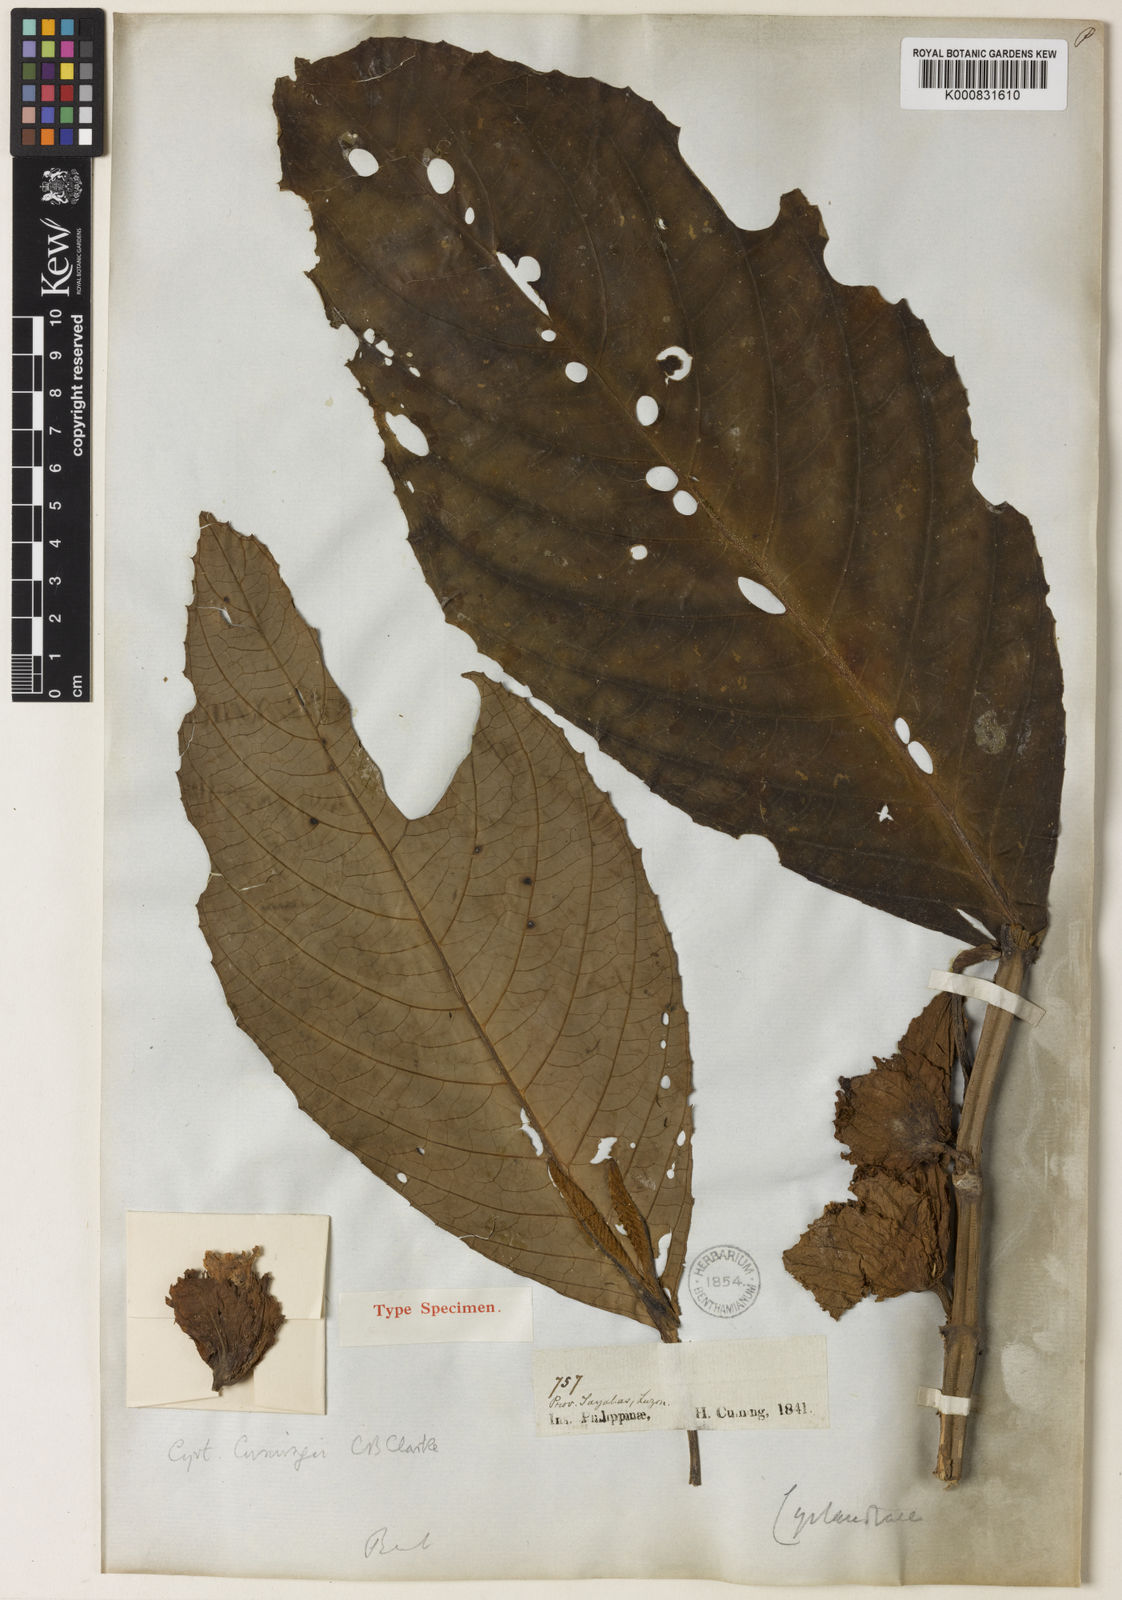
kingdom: Plantae
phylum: Tracheophyta
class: Magnoliopsida
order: Lamiales
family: Gesneriaceae
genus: Cyrtandra
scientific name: Cyrtandra cumingii
